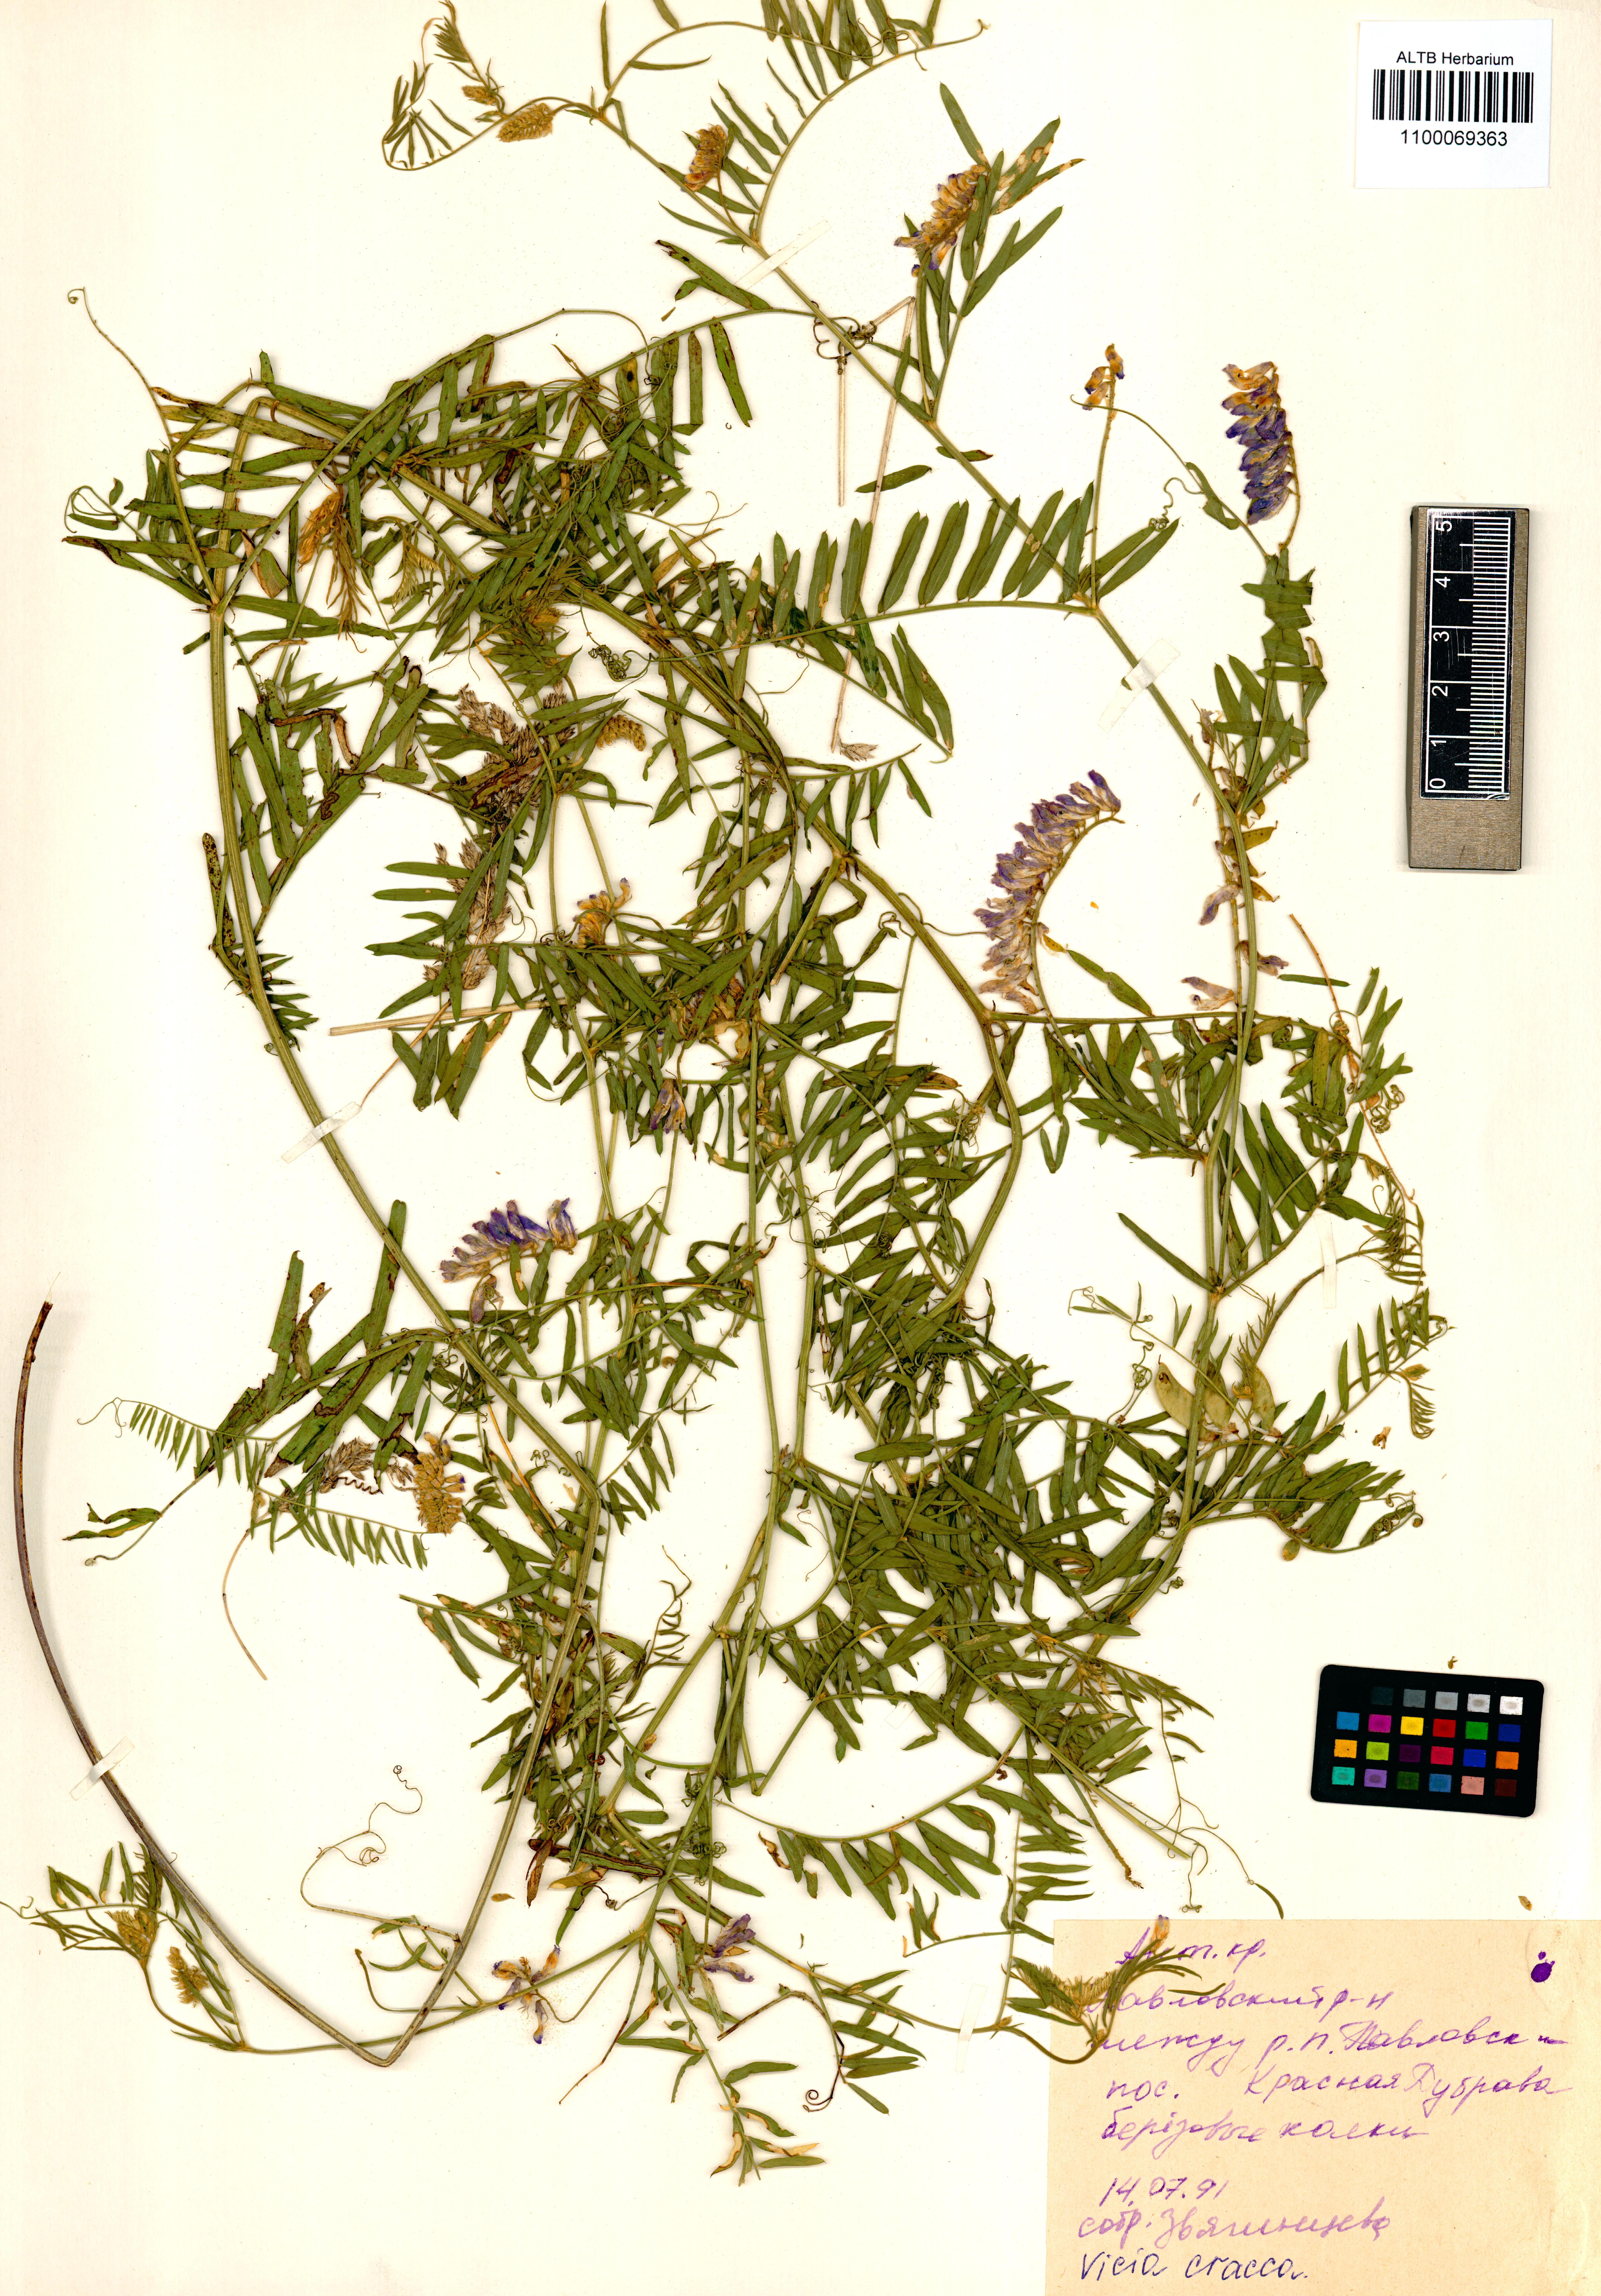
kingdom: Plantae
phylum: Tracheophyta
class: Magnoliopsida
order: Fabales
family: Fabaceae
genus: Vicia
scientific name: Vicia cracca
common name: Bird vetch
